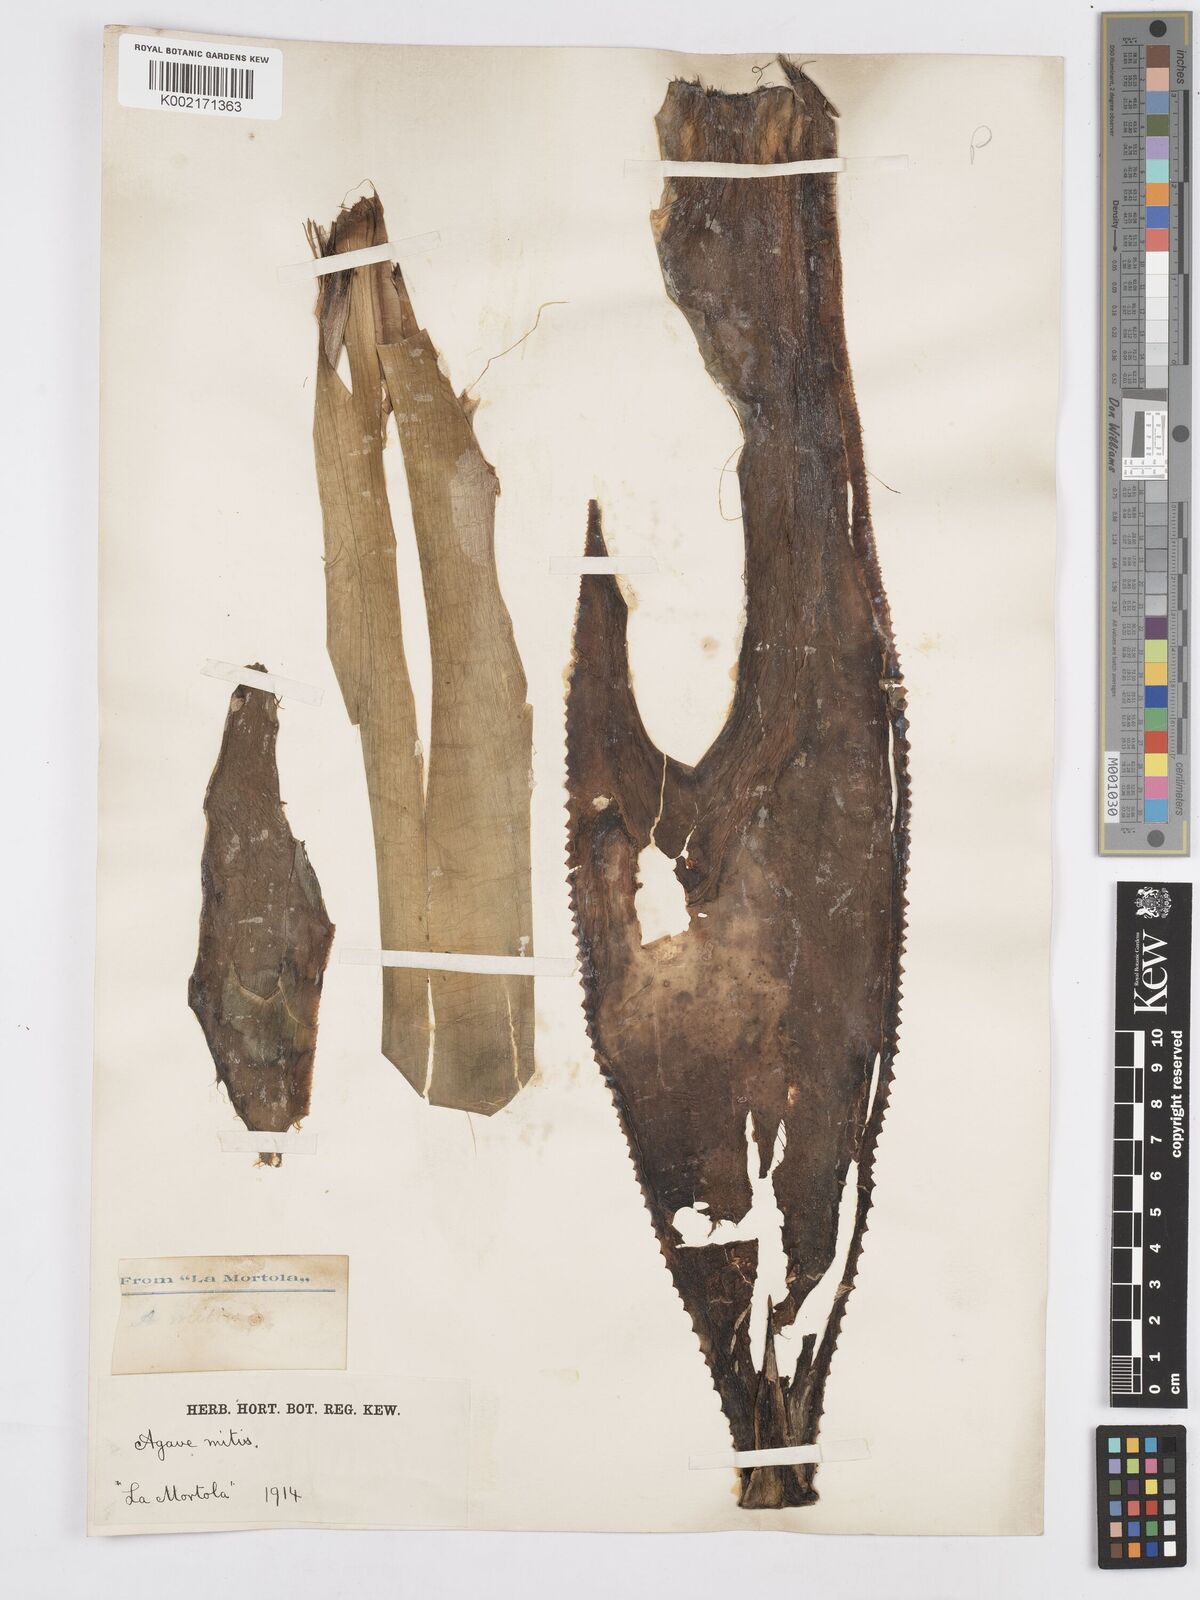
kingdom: Plantae
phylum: Tracheophyta
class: Liliopsida
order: Asparagales
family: Asparagaceae
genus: Agave
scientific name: Agave mitis
